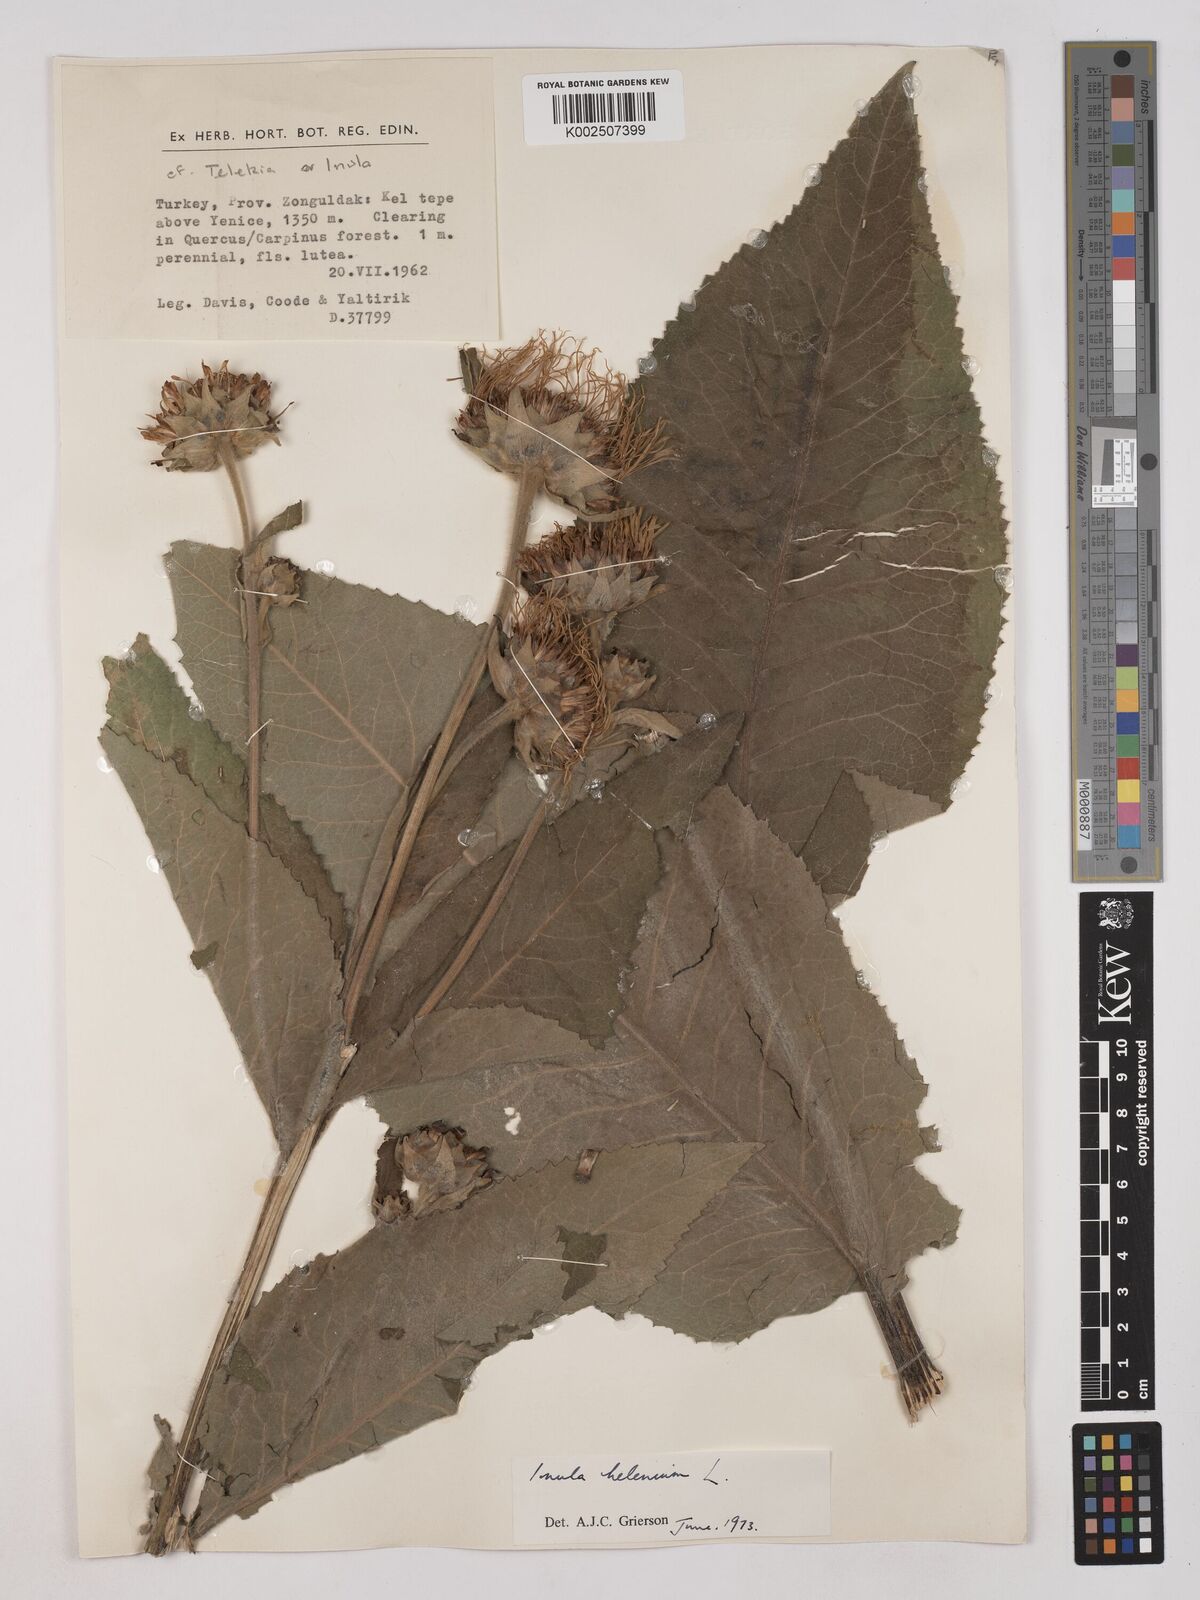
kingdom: Plantae
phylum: Tracheophyta
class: Magnoliopsida
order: Asterales
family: Asteraceae
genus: Inula
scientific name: Inula helenium
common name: Elecampane
